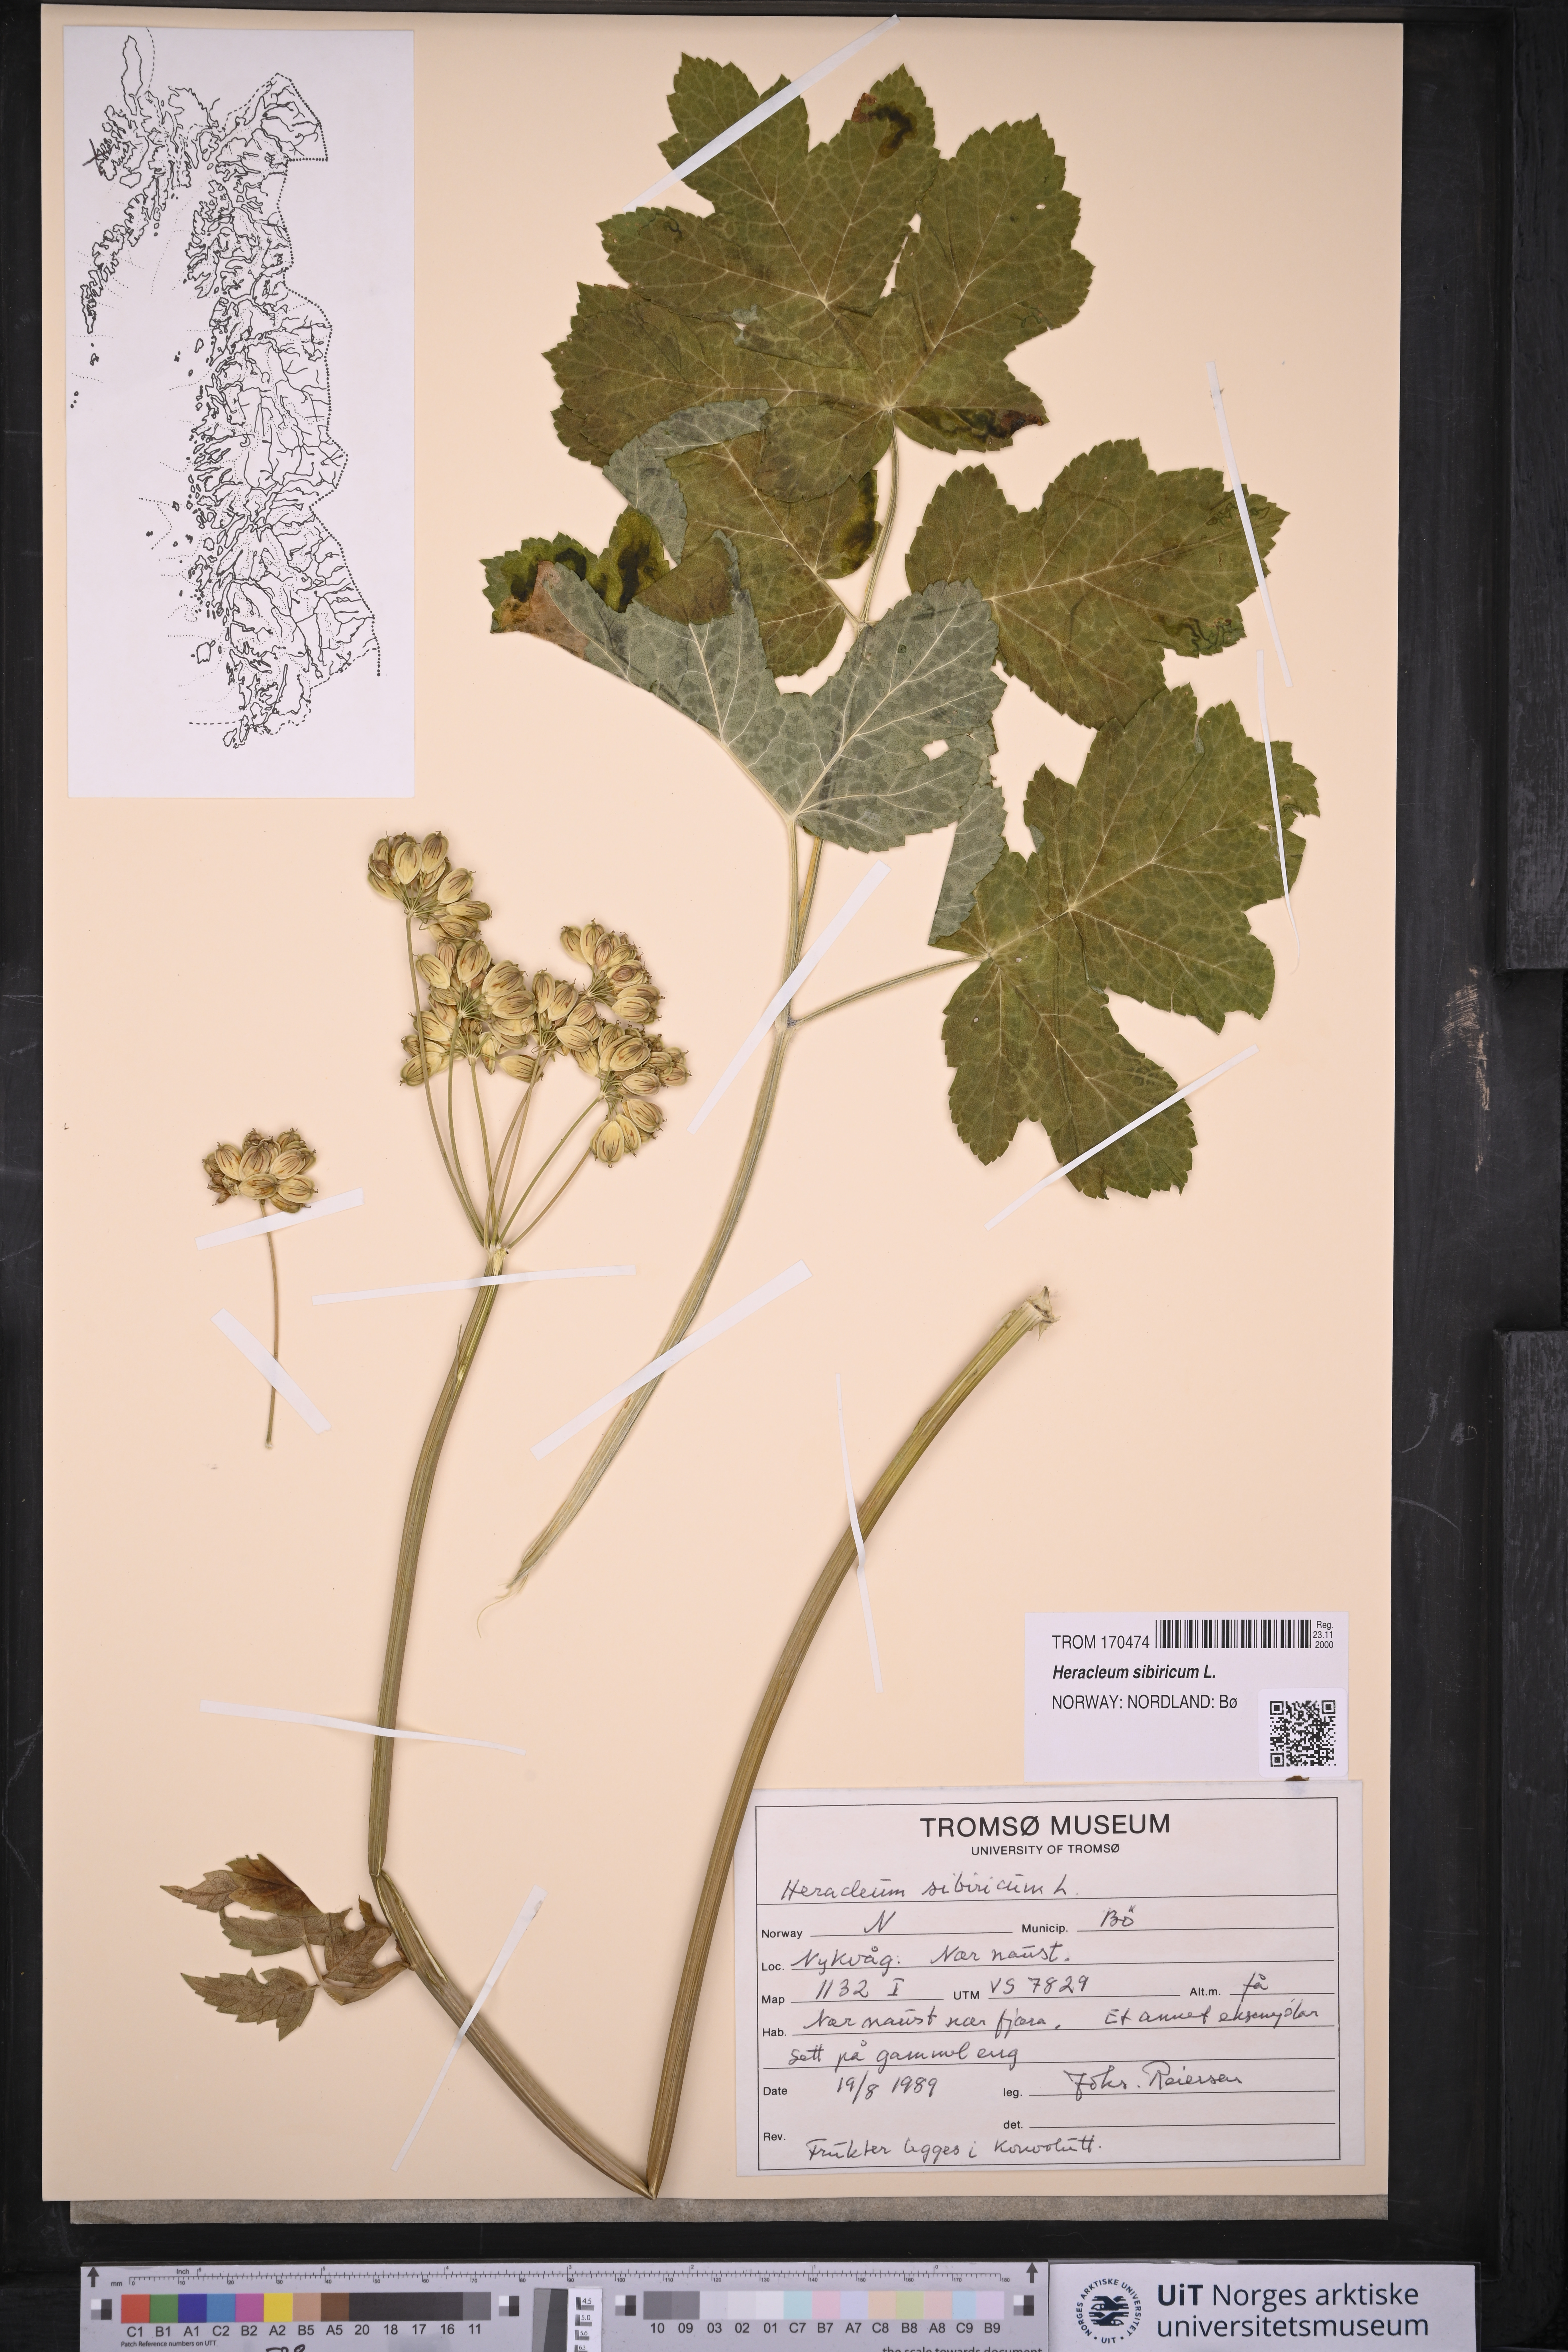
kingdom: Plantae
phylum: Tracheophyta
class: Magnoliopsida
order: Apiales
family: Apiaceae
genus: Heracleum
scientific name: Heracleum sphondylium
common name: Hogweed
